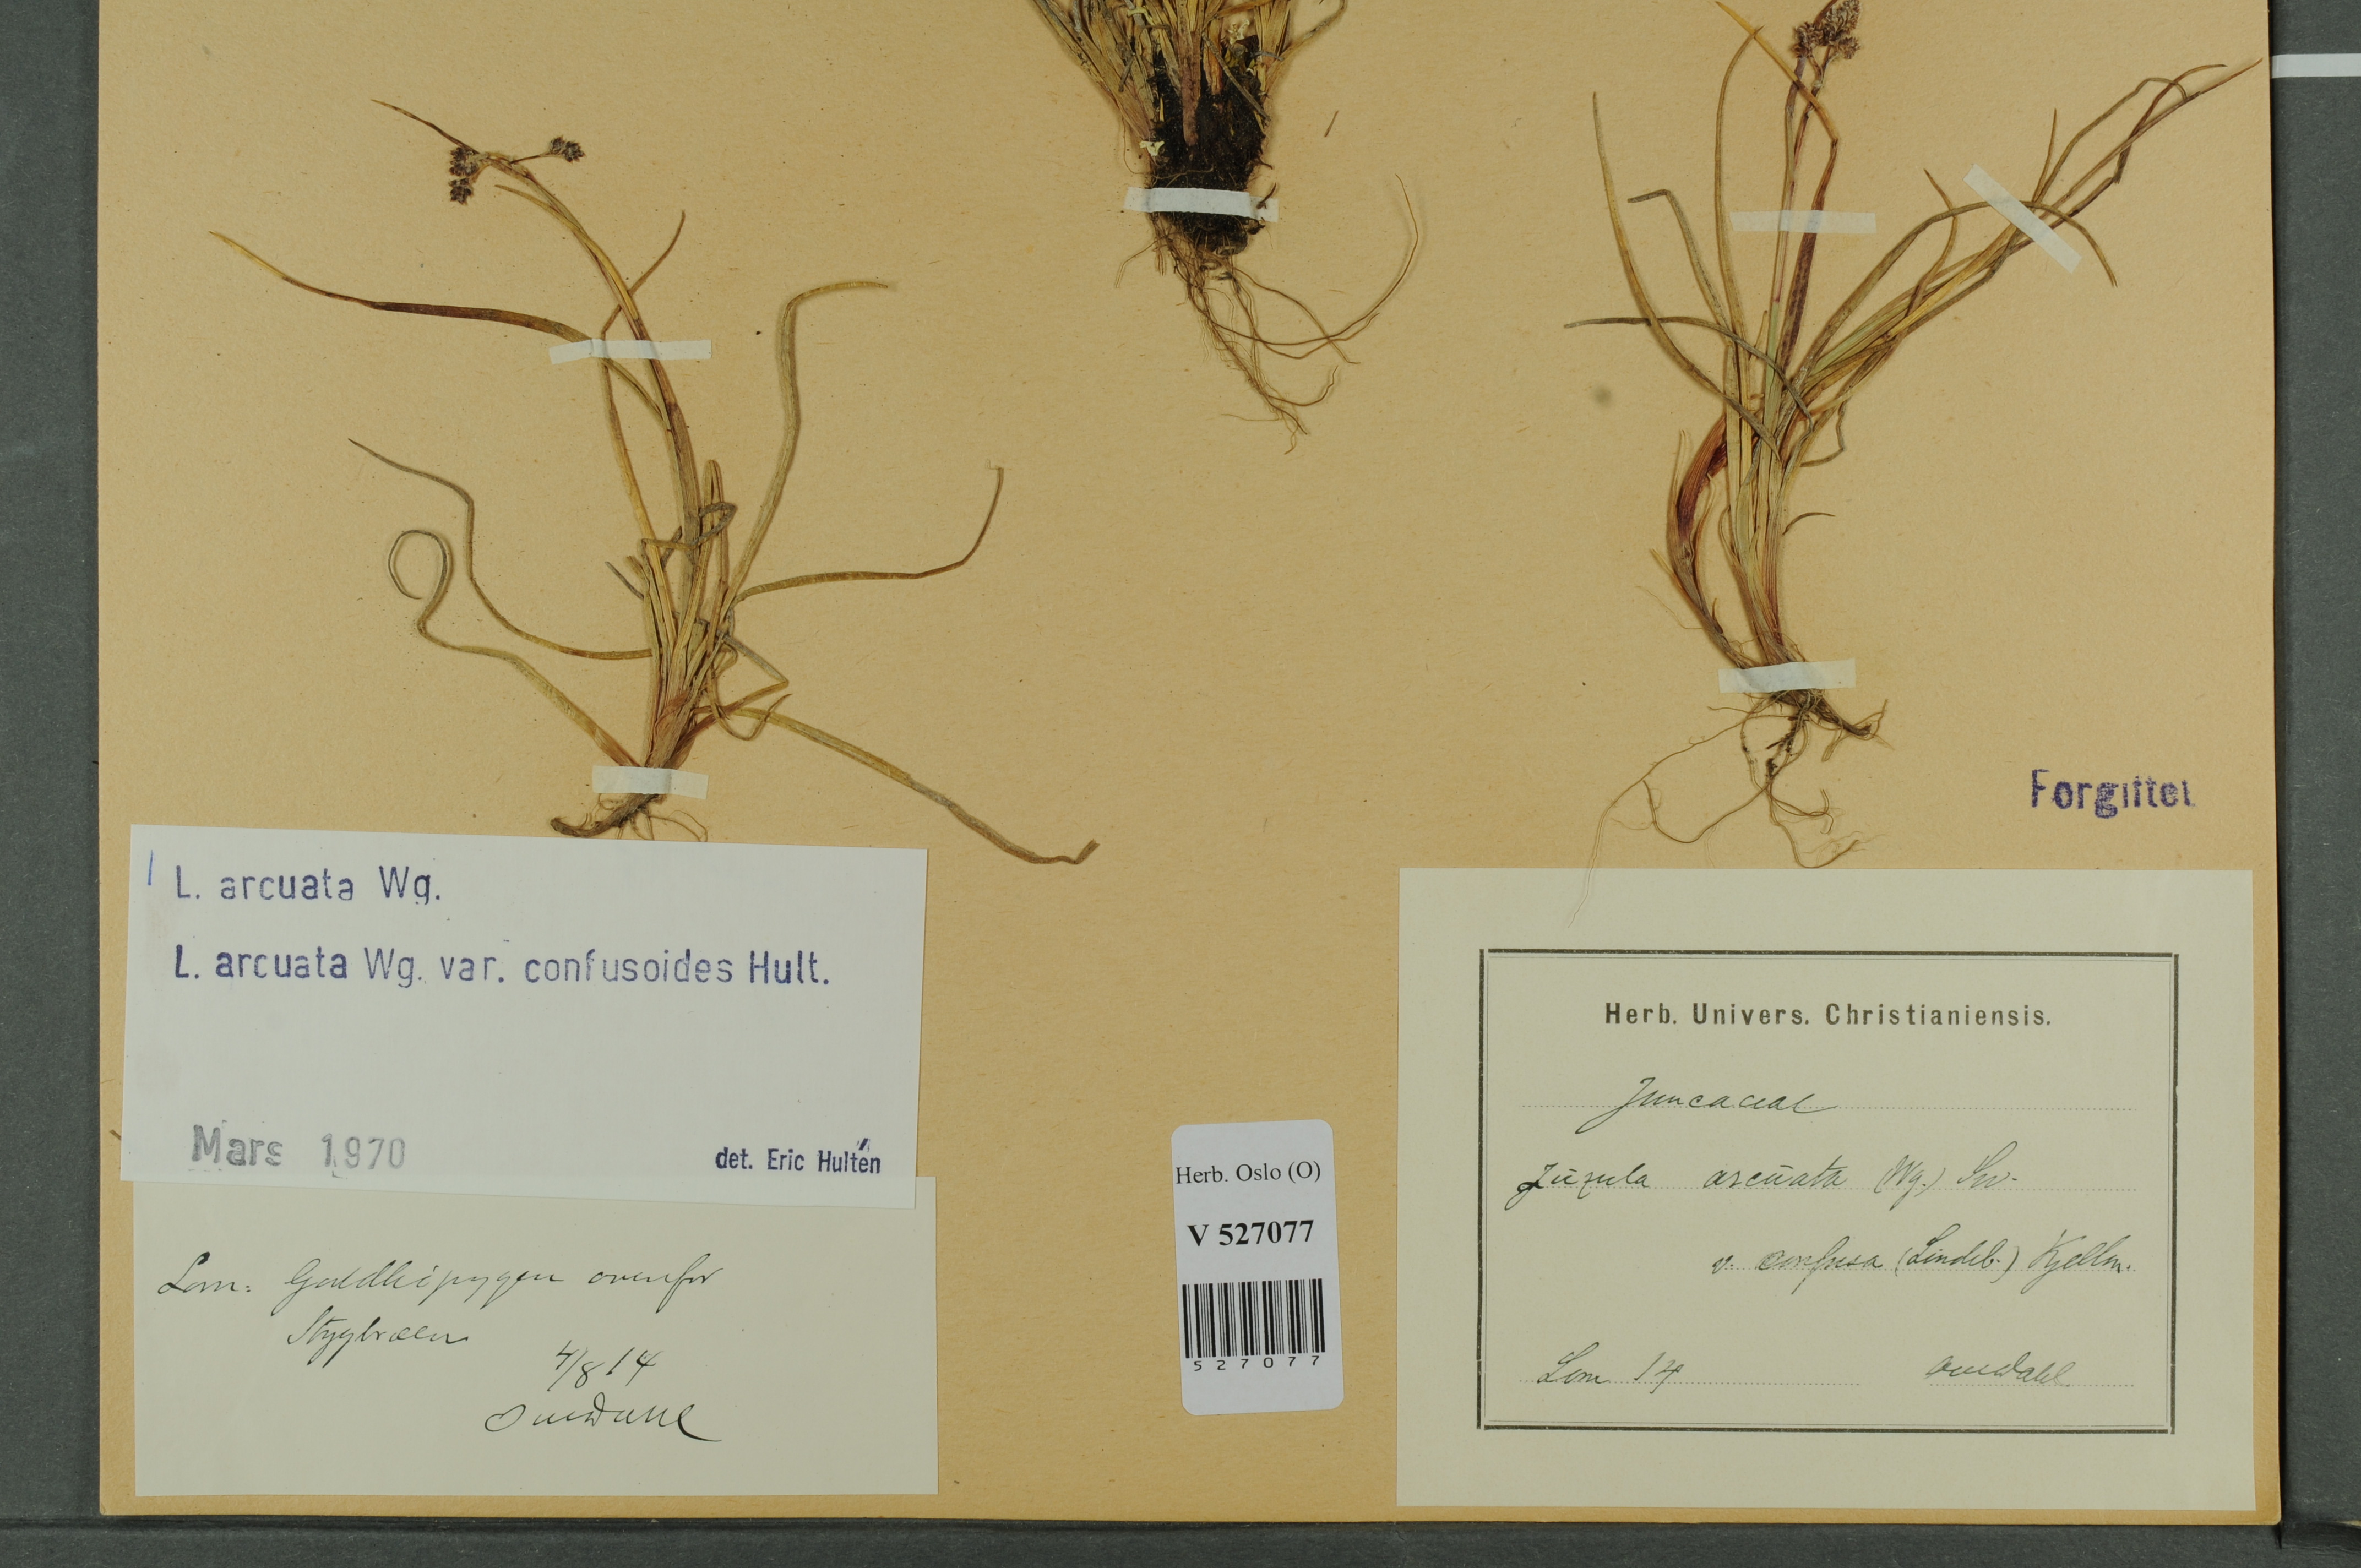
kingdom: Plantae
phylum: Tracheophyta
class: Liliopsida
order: Poales
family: Juncaceae
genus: Luzula
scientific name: Luzula arcuata
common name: Curved wood-rush
